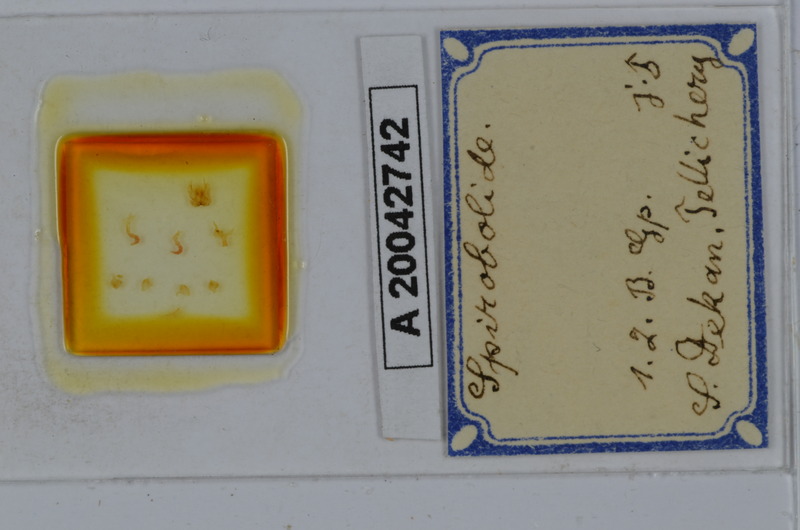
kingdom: Animalia
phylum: Arthropoda
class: Diplopoda
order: Spirobolida
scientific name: Spirobolida
